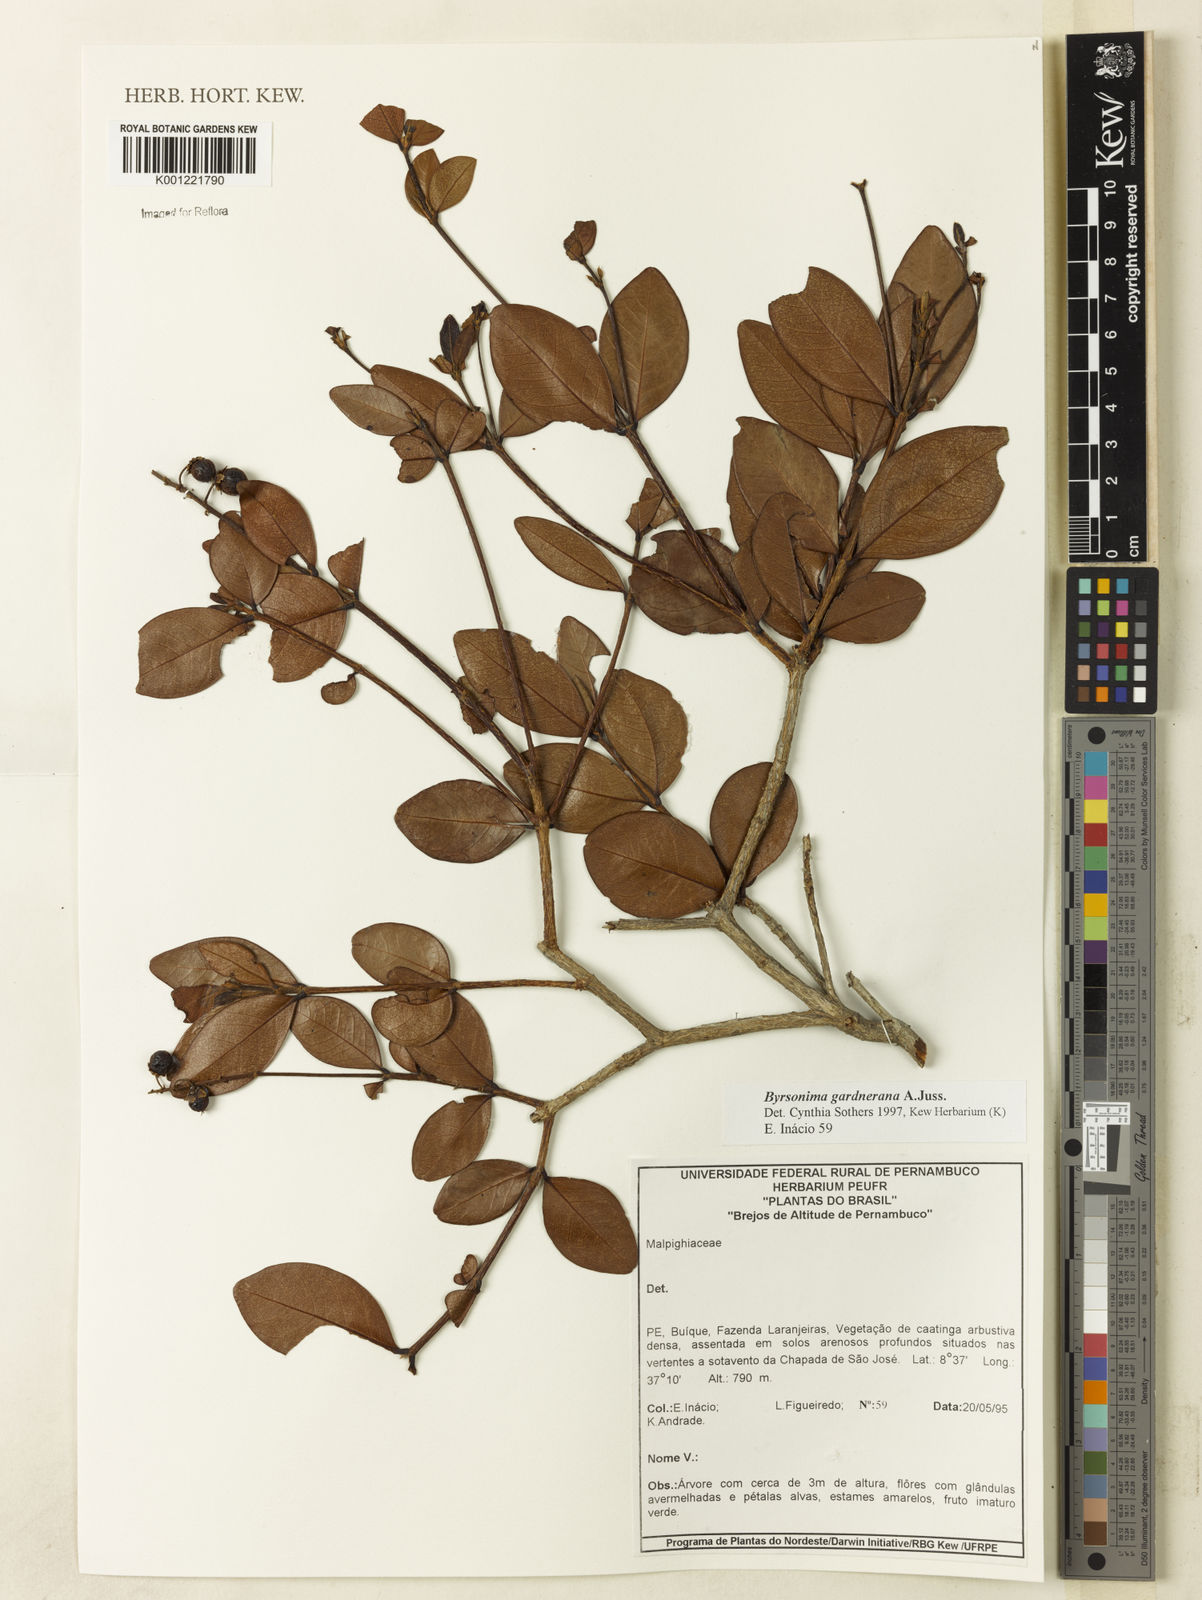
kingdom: Plantae
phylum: Tracheophyta
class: Magnoliopsida
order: Malpighiales
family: Malpighiaceae
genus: Byrsonima
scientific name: Byrsonima gardneriana
